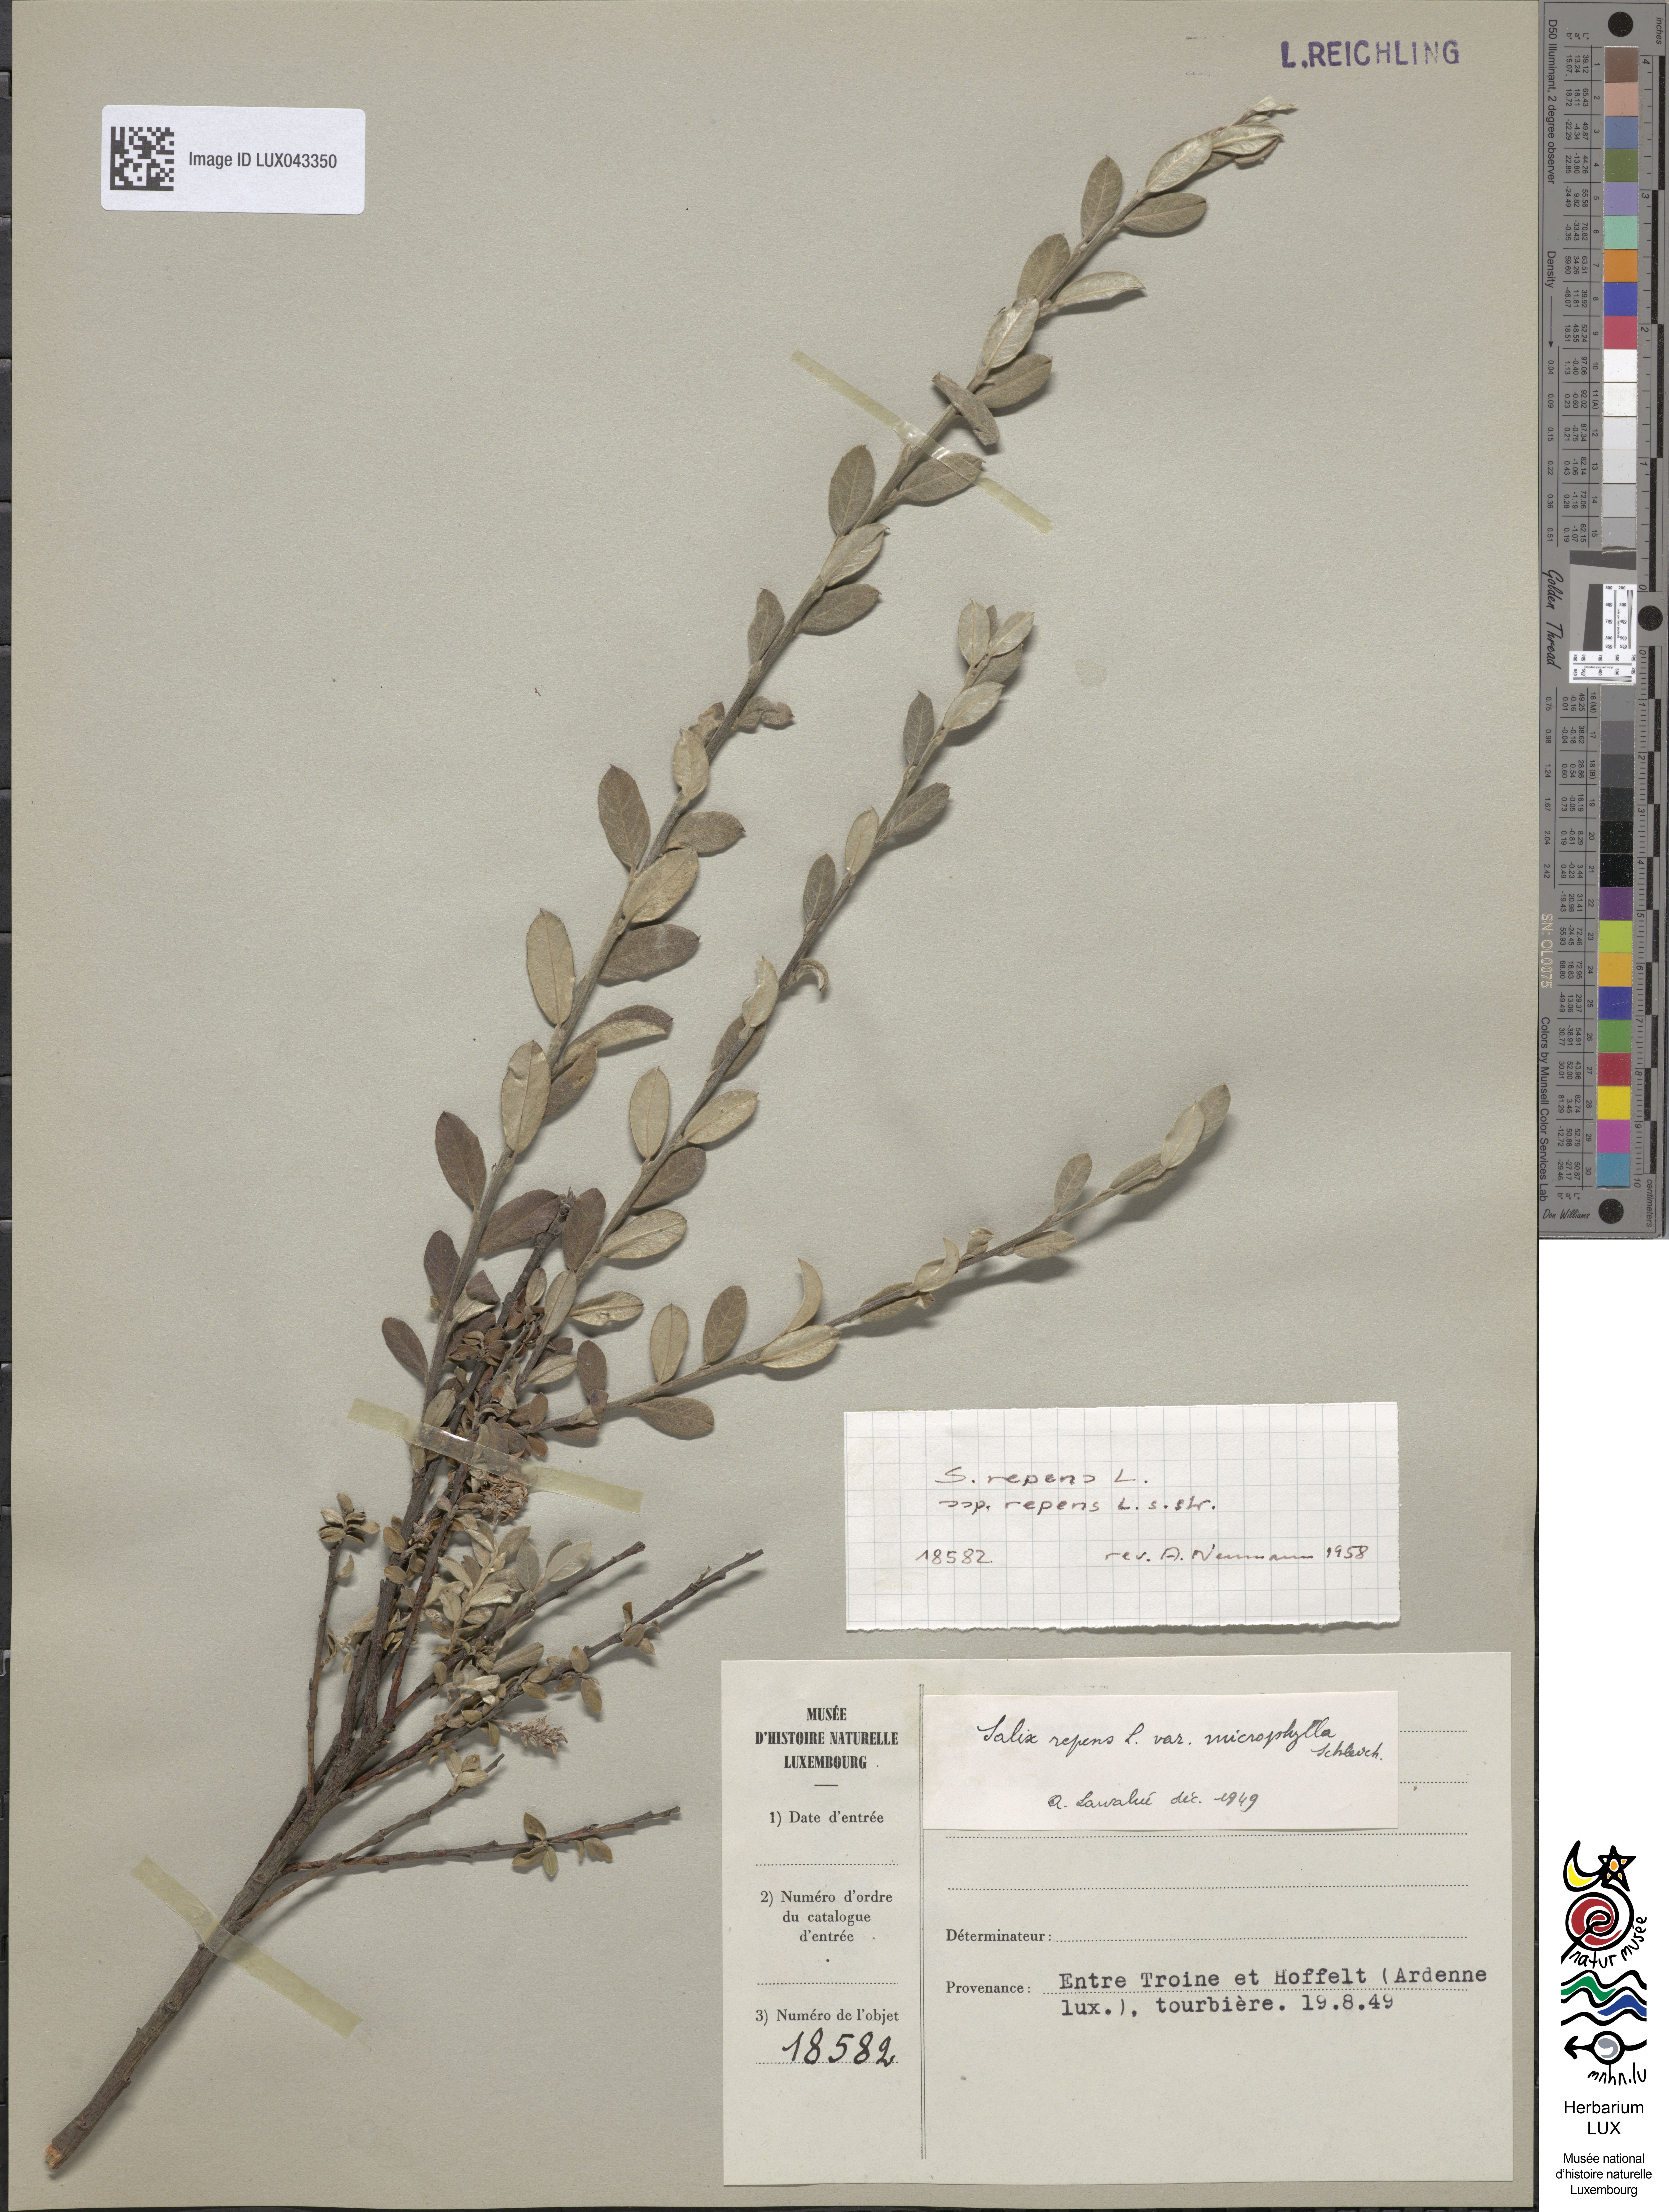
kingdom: Plantae
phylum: Tracheophyta
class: Magnoliopsida
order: Malpighiales
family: Salicaceae
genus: Salix
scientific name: Salix repens
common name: Creeping willow
